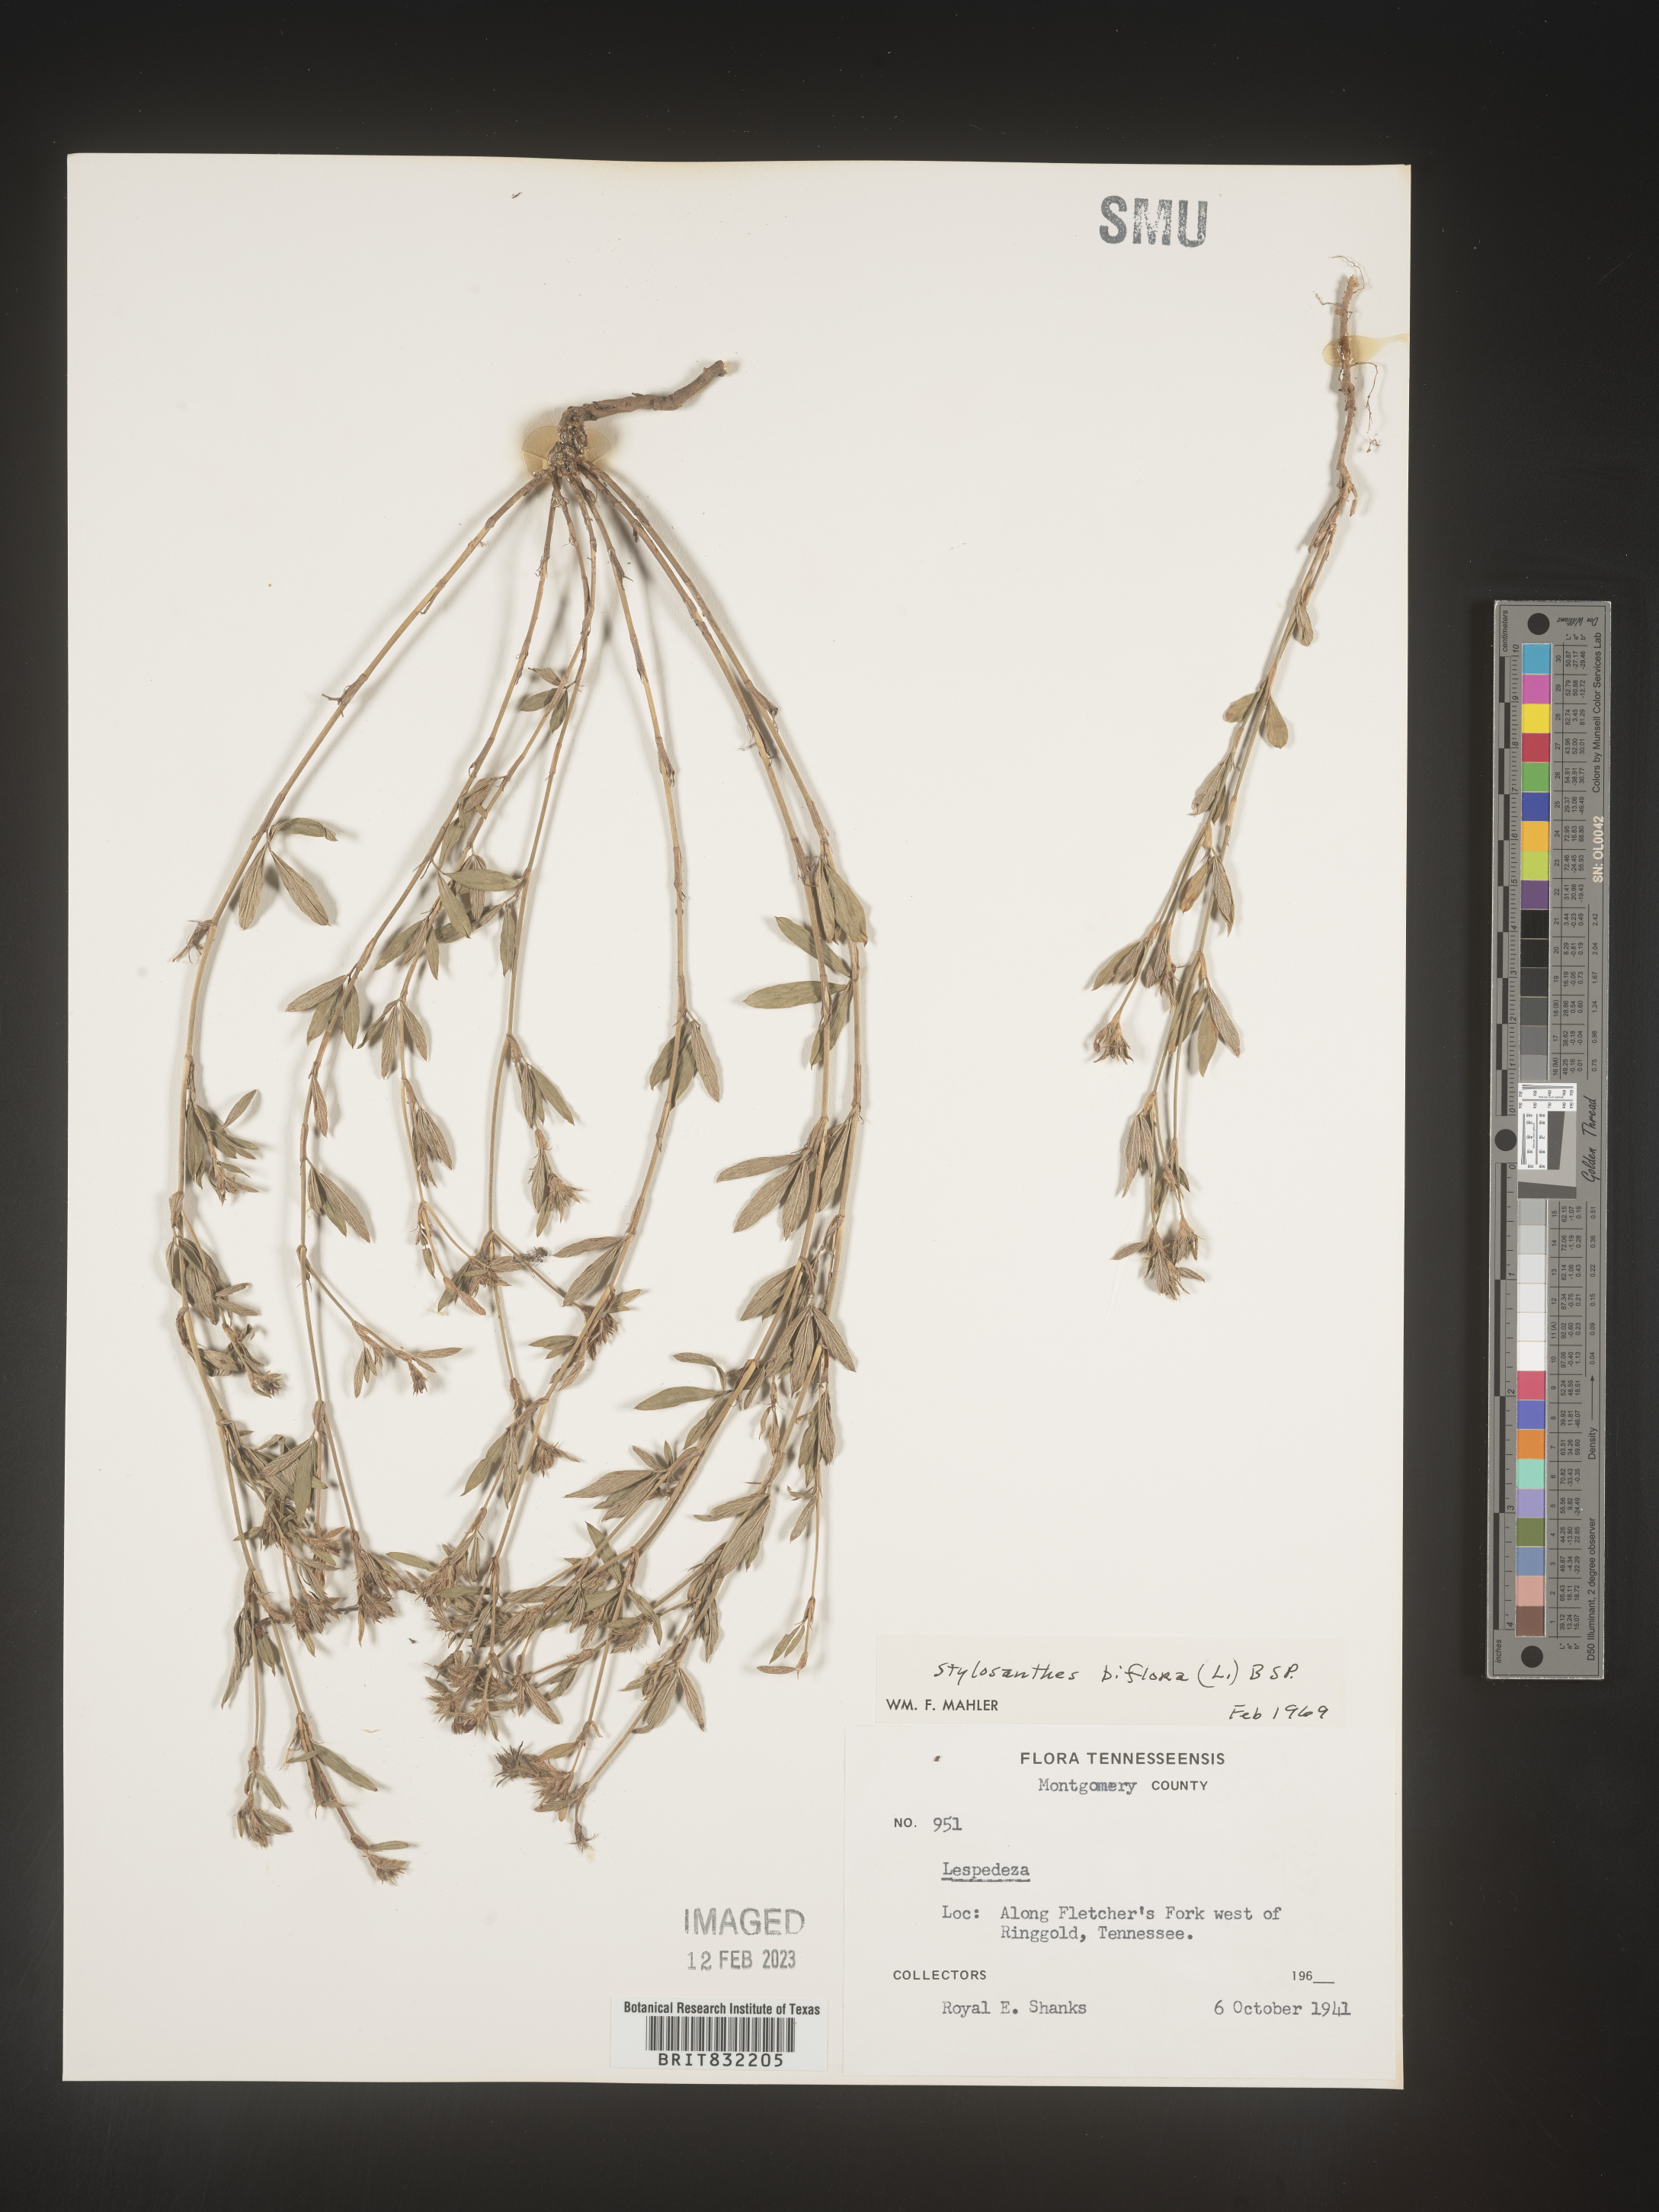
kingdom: Plantae
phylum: Tracheophyta
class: Magnoliopsida
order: Fabales
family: Fabaceae
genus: Stylosanthes
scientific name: Stylosanthes biflora
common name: Two-flower pencil-flower
